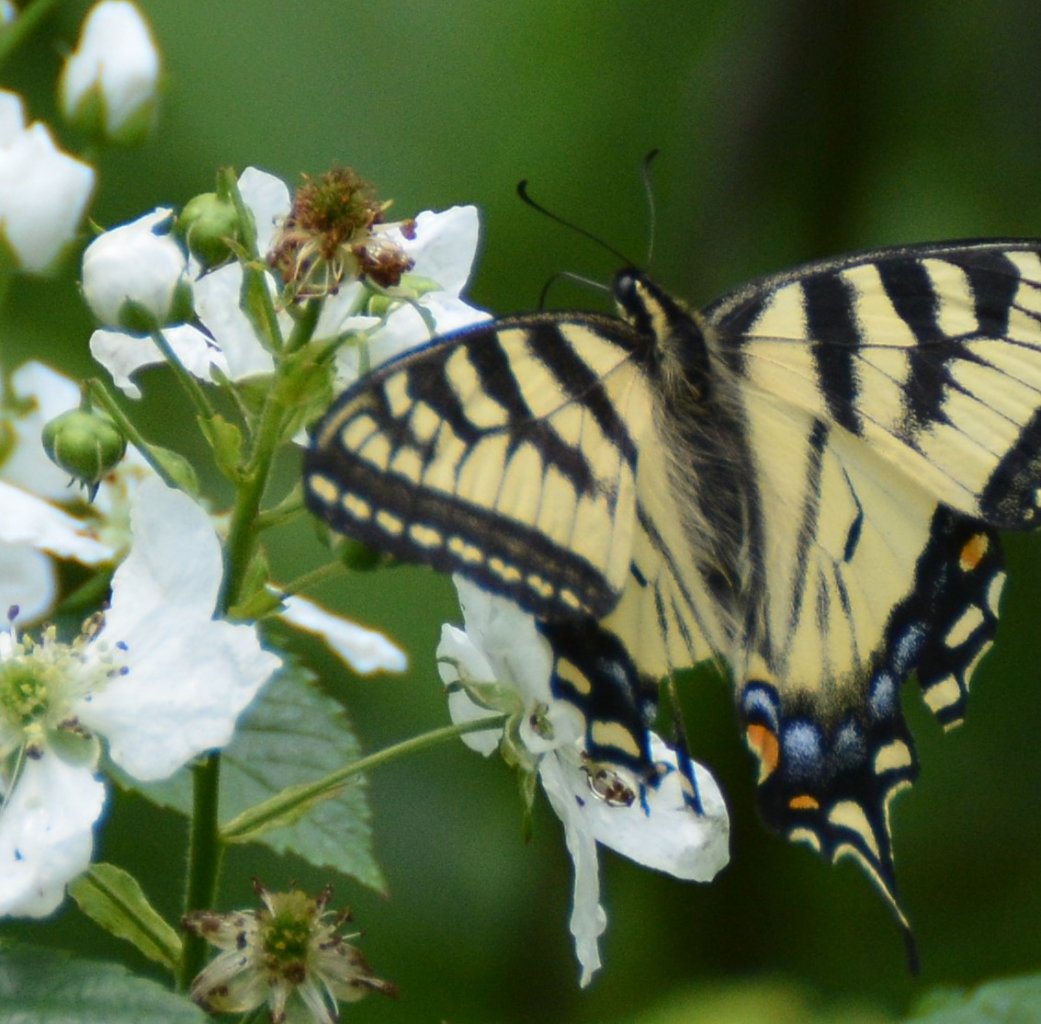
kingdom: Animalia
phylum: Arthropoda
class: Insecta
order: Lepidoptera
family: Papilionidae
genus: Pterourus
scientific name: Pterourus canadensis
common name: Canadian Tiger Swallowtail
